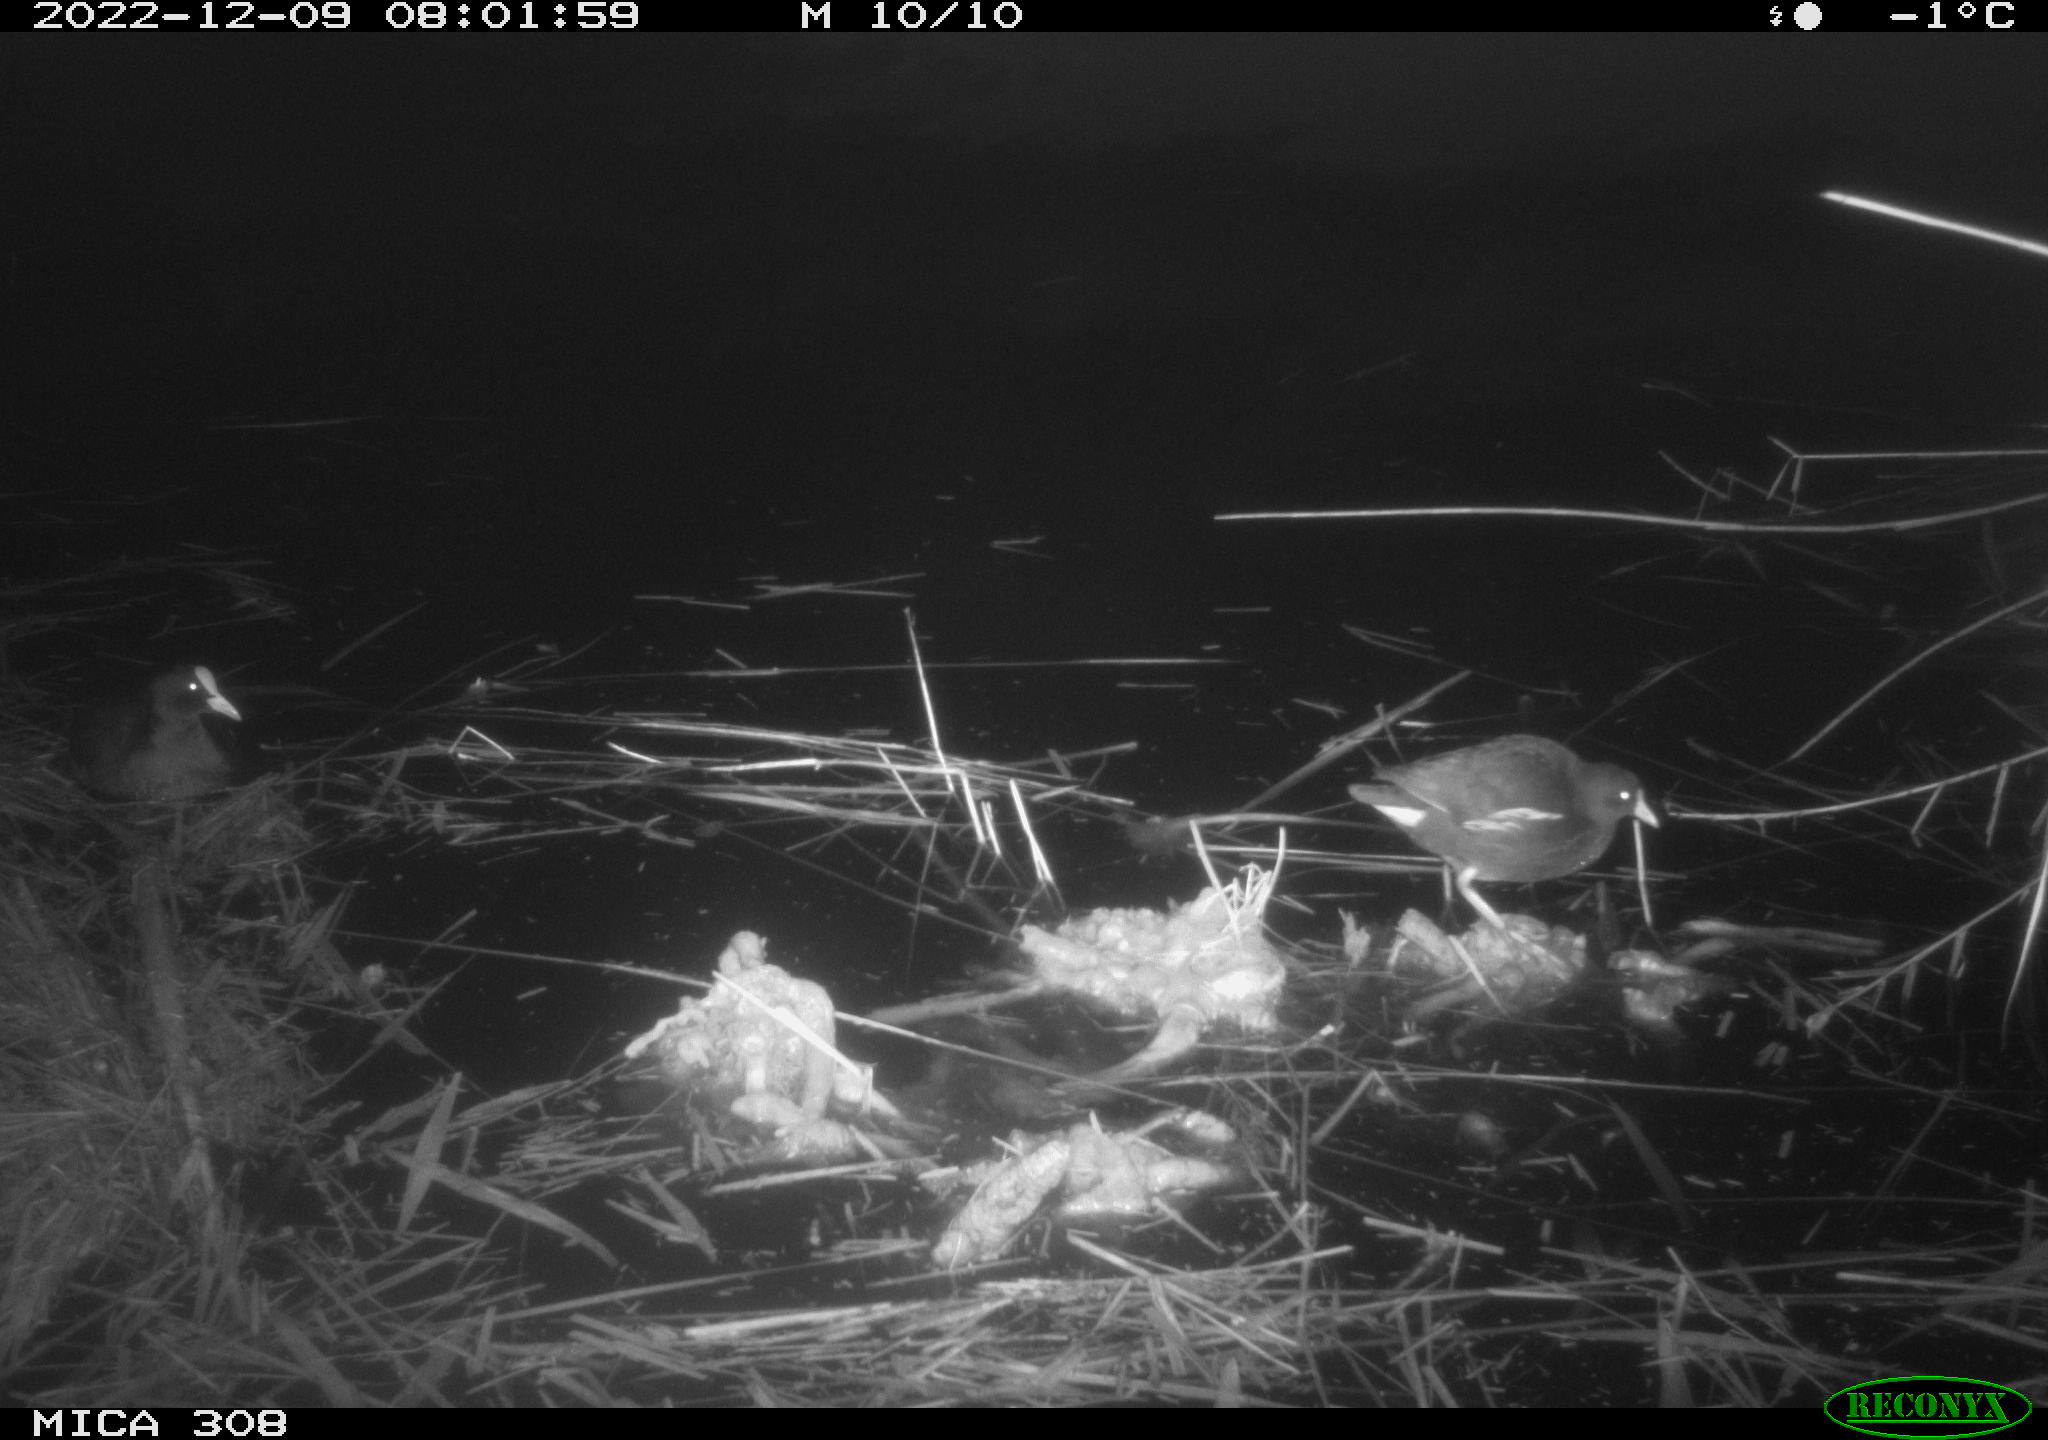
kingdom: Animalia
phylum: Chordata
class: Aves
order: Gruiformes
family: Rallidae
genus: Gallinula
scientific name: Gallinula chloropus
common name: Common moorhen
